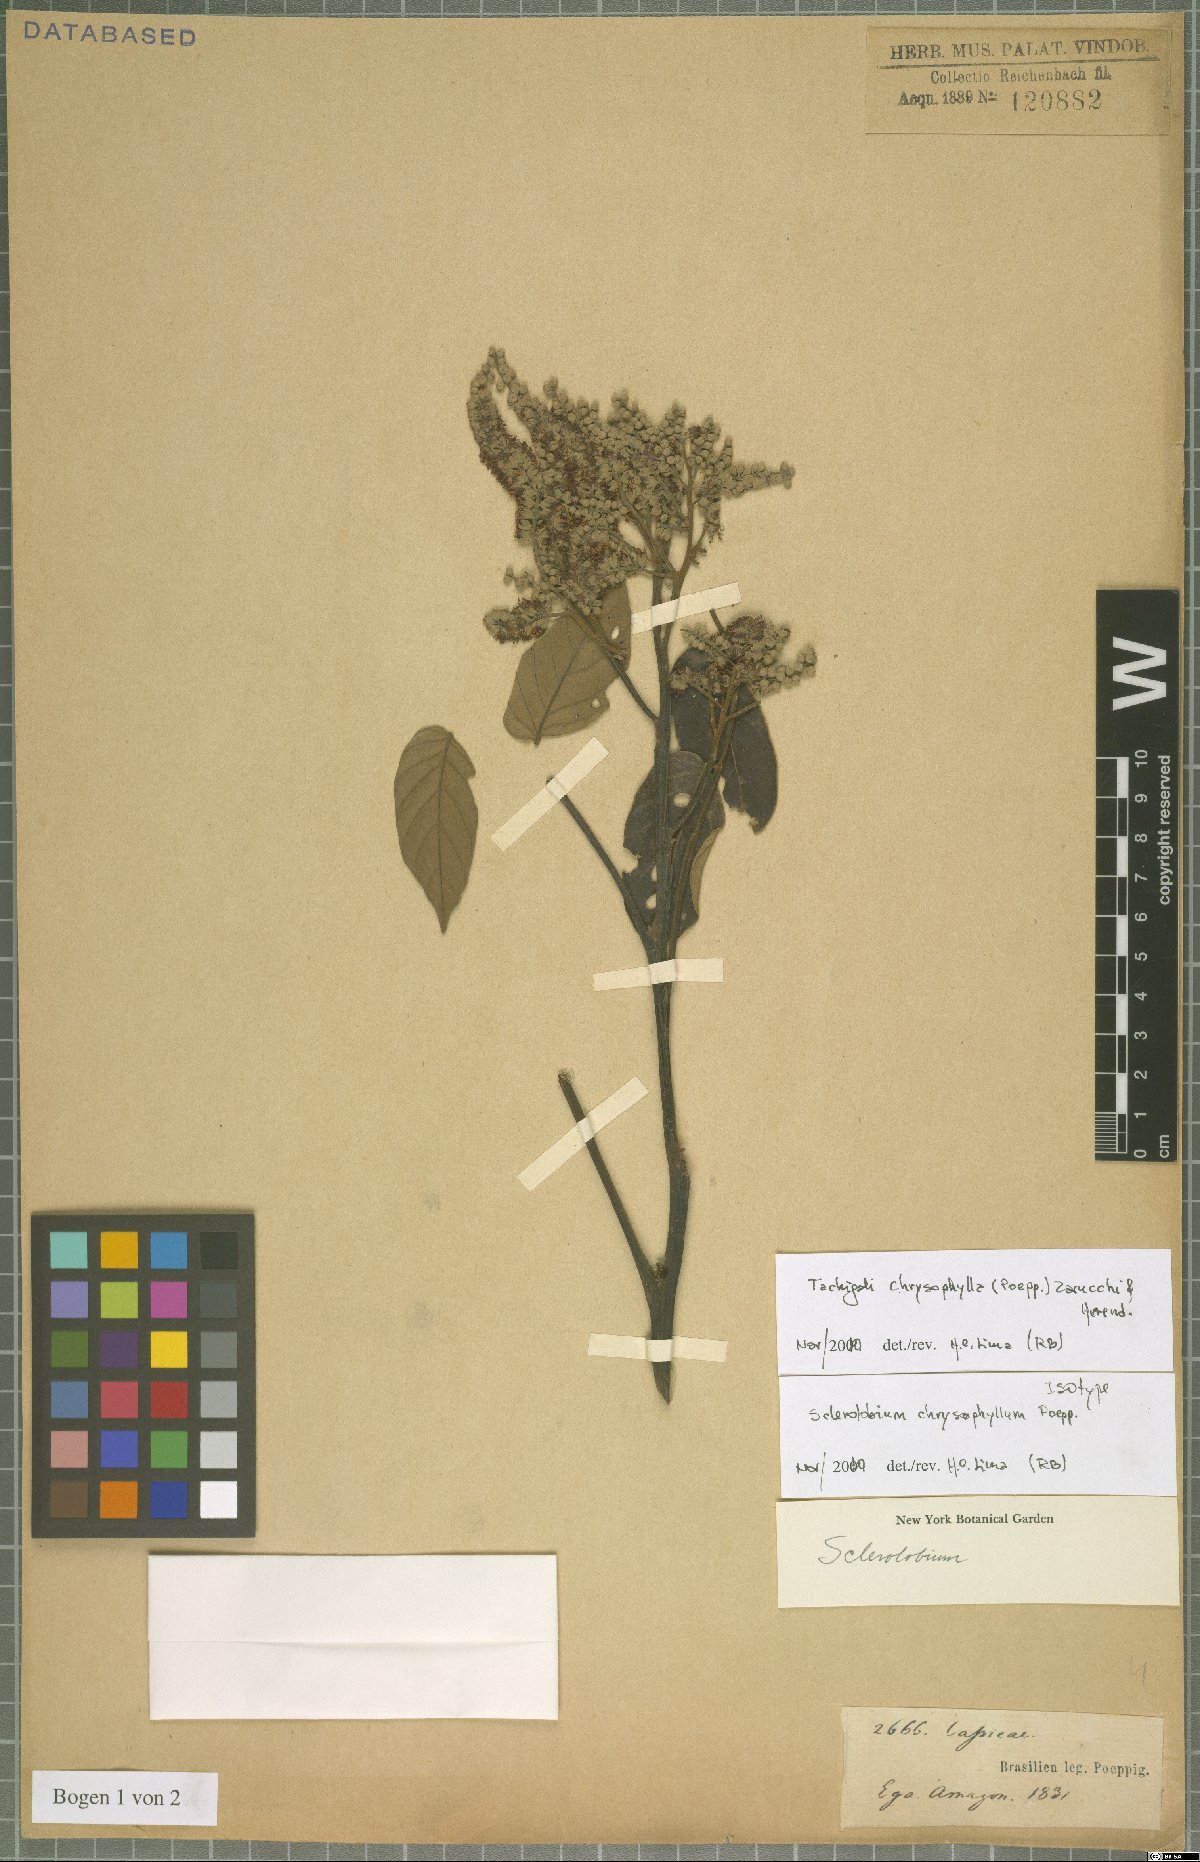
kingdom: Plantae
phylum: Tracheophyta
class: Magnoliopsida
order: Fabales
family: Fabaceae
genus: Tachigali
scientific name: Tachigali chrysophylla
